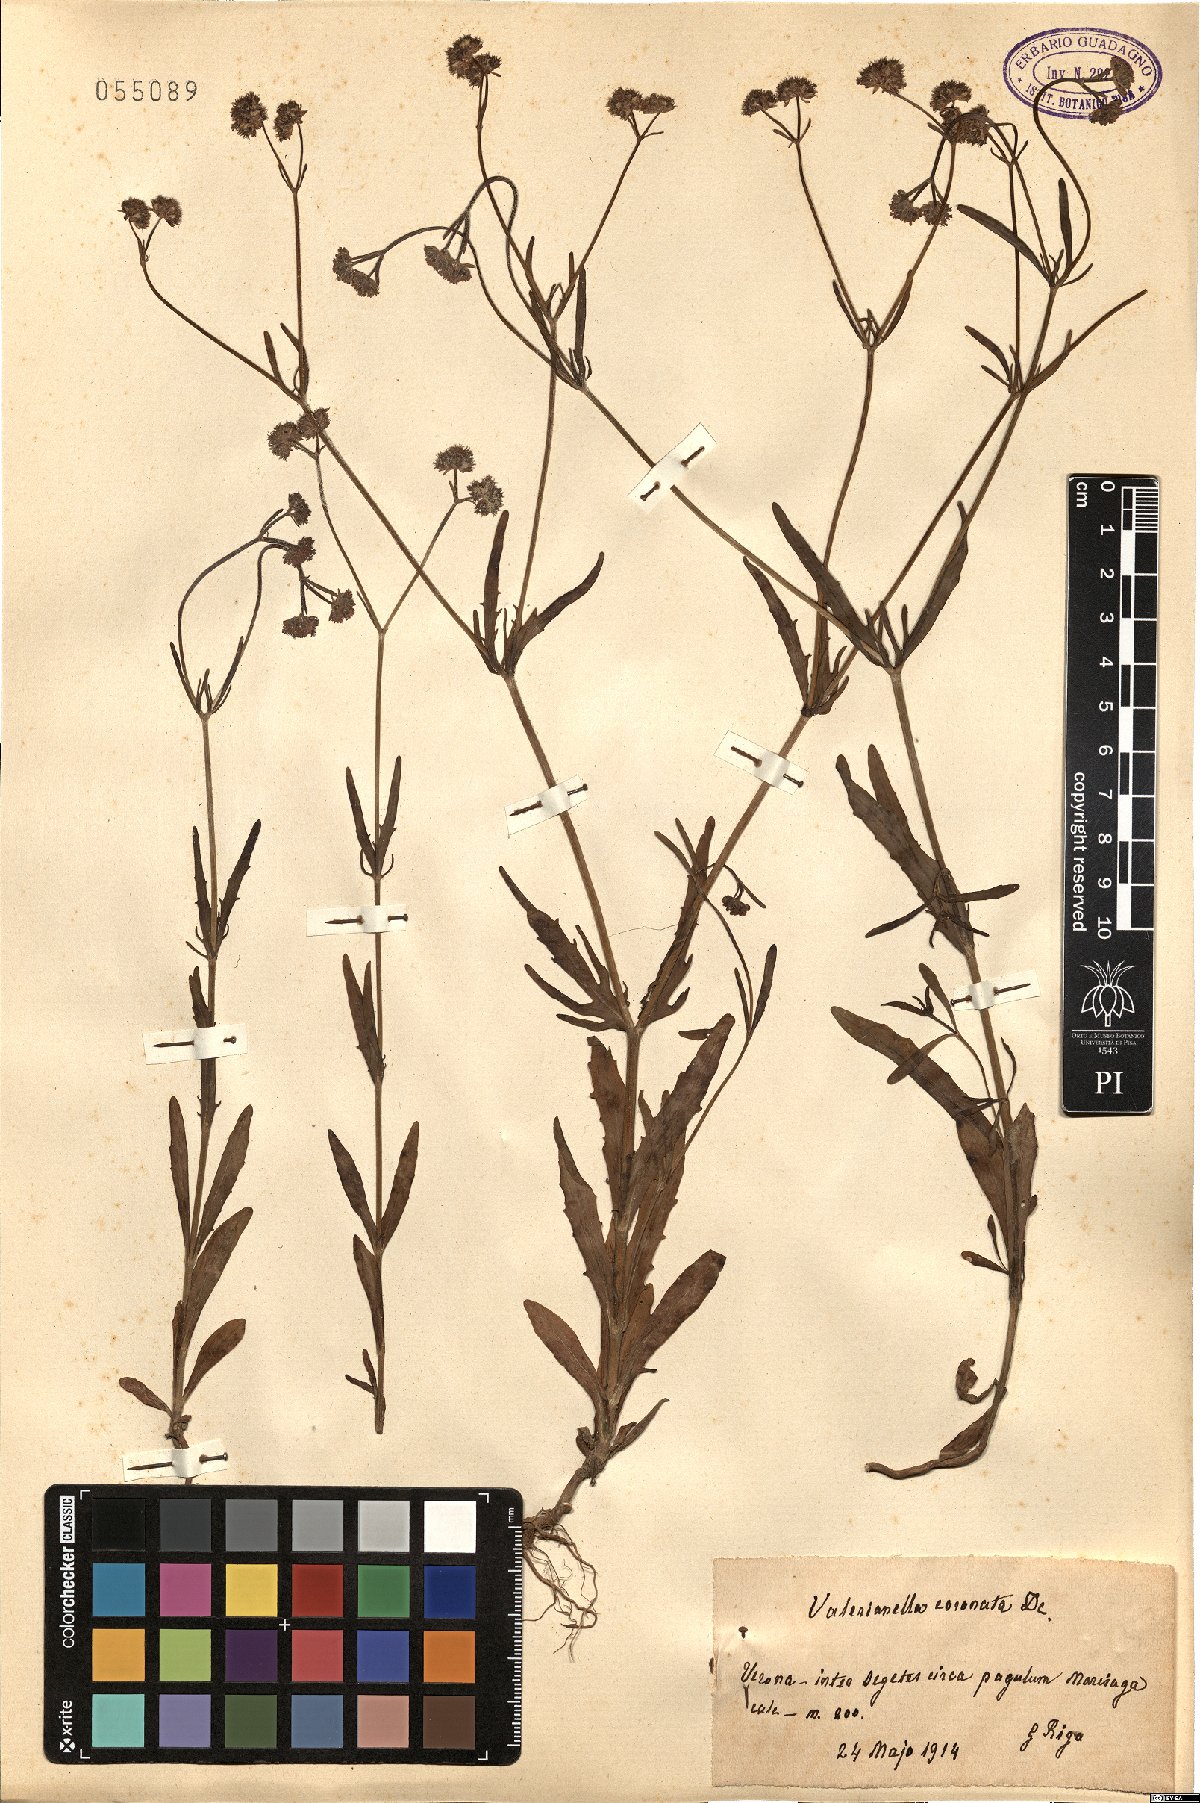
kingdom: Plantae
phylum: Tracheophyta
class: Magnoliopsida
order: Dipsacales
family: Caprifoliaceae
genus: Valerianella
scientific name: Valerianella coronata
